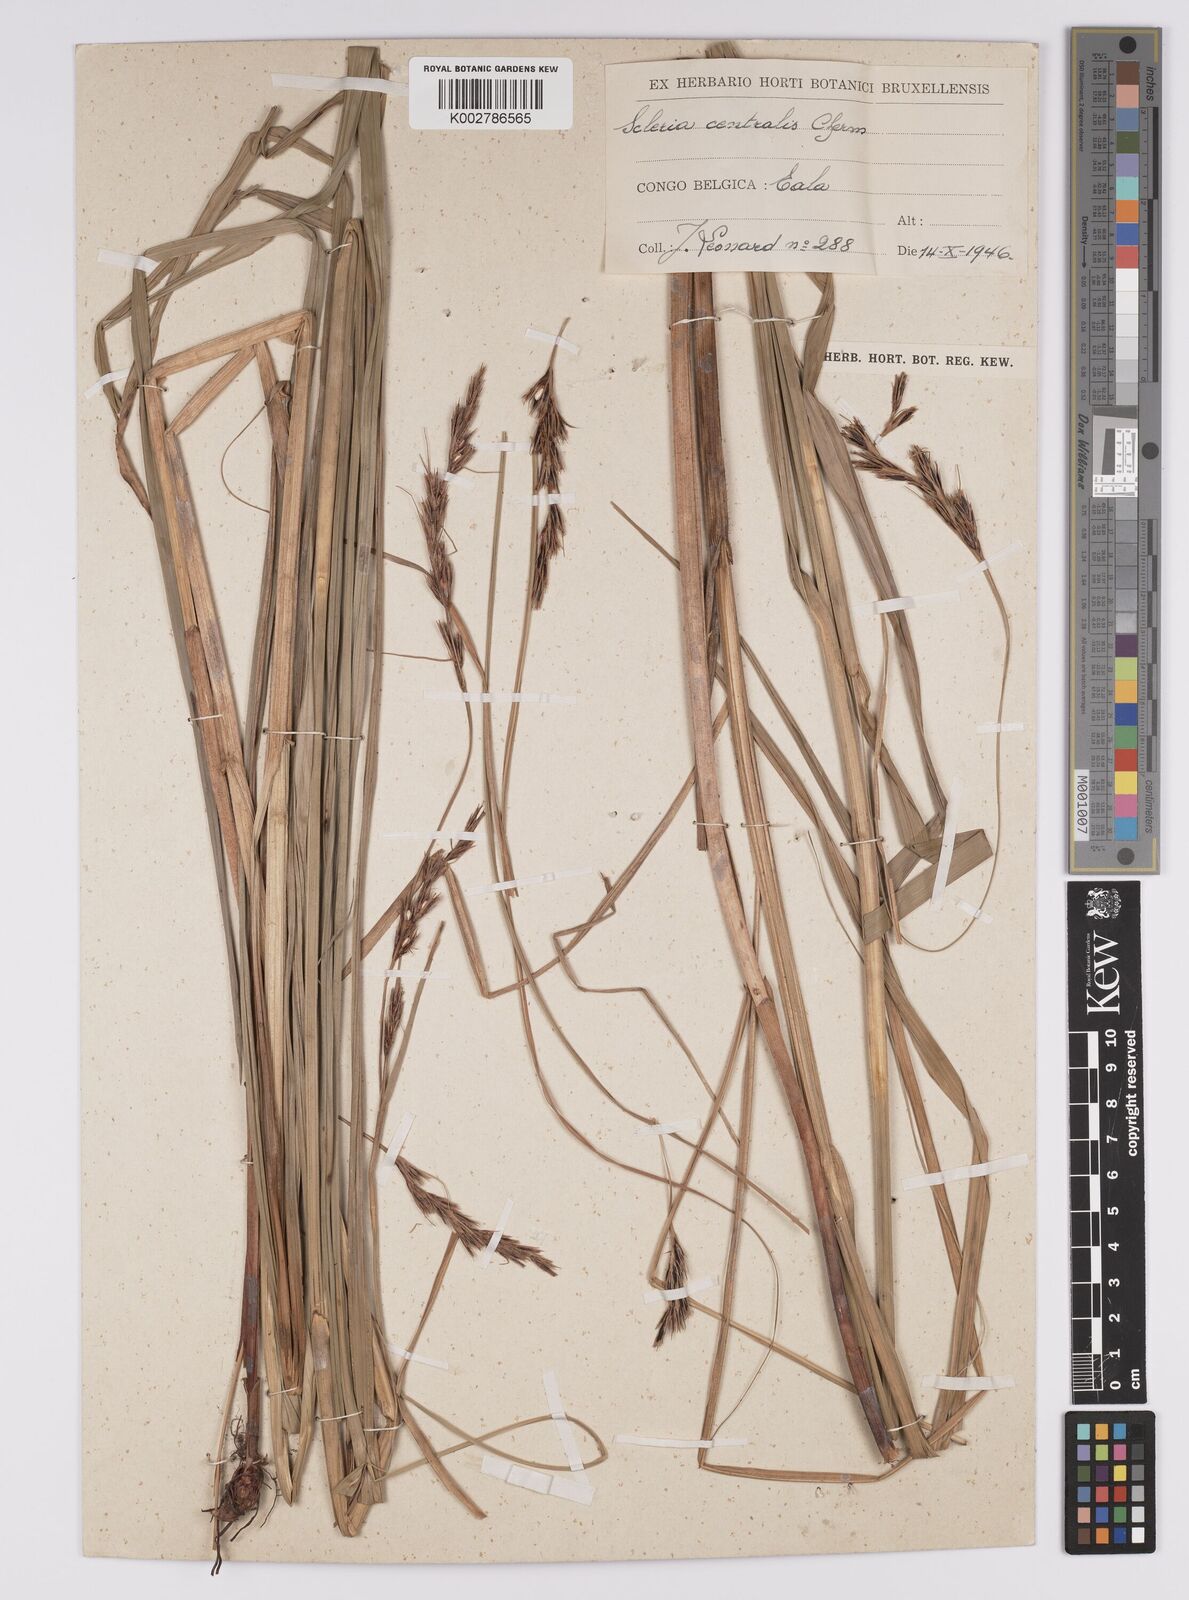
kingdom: Plantae
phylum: Tracheophyta
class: Liliopsida
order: Poales
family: Cyperaceae
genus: Scleria
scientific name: Scleria melanomphala
